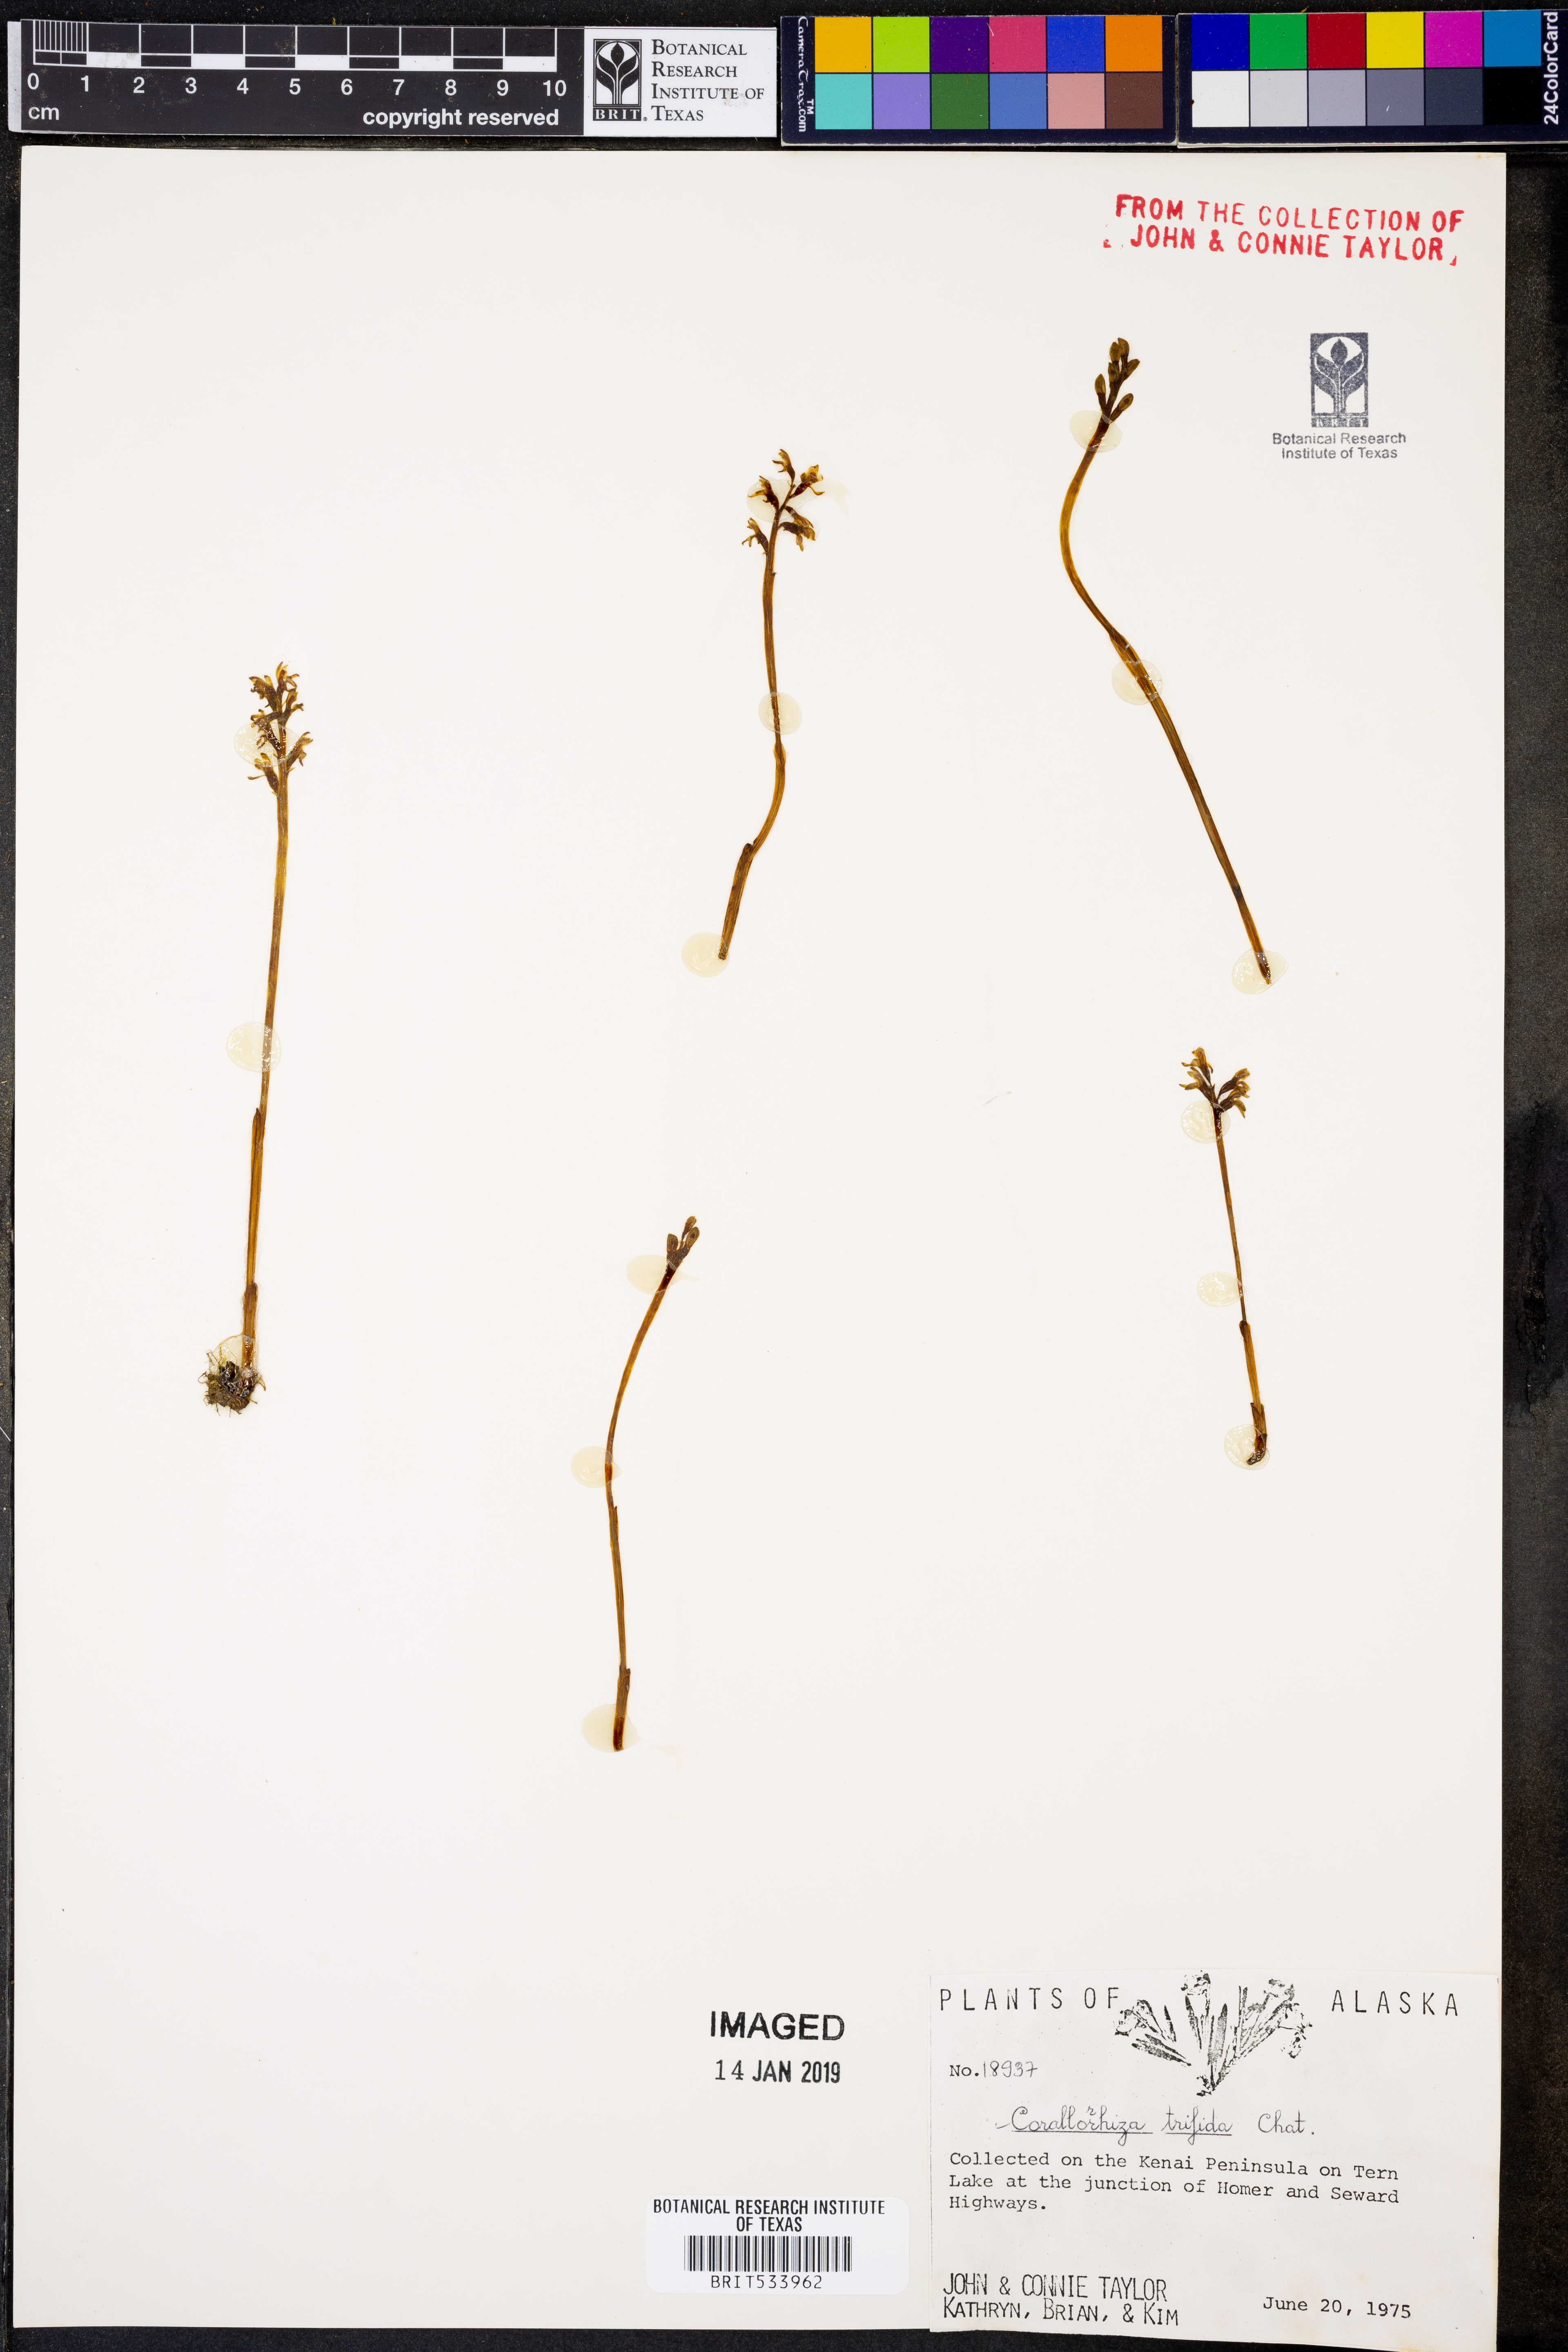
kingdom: Plantae
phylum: Tracheophyta
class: Liliopsida
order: Asparagales
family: Orchidaceae
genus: Corallorhiza
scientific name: Corallorhiza trifida
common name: Yellow coralroot
